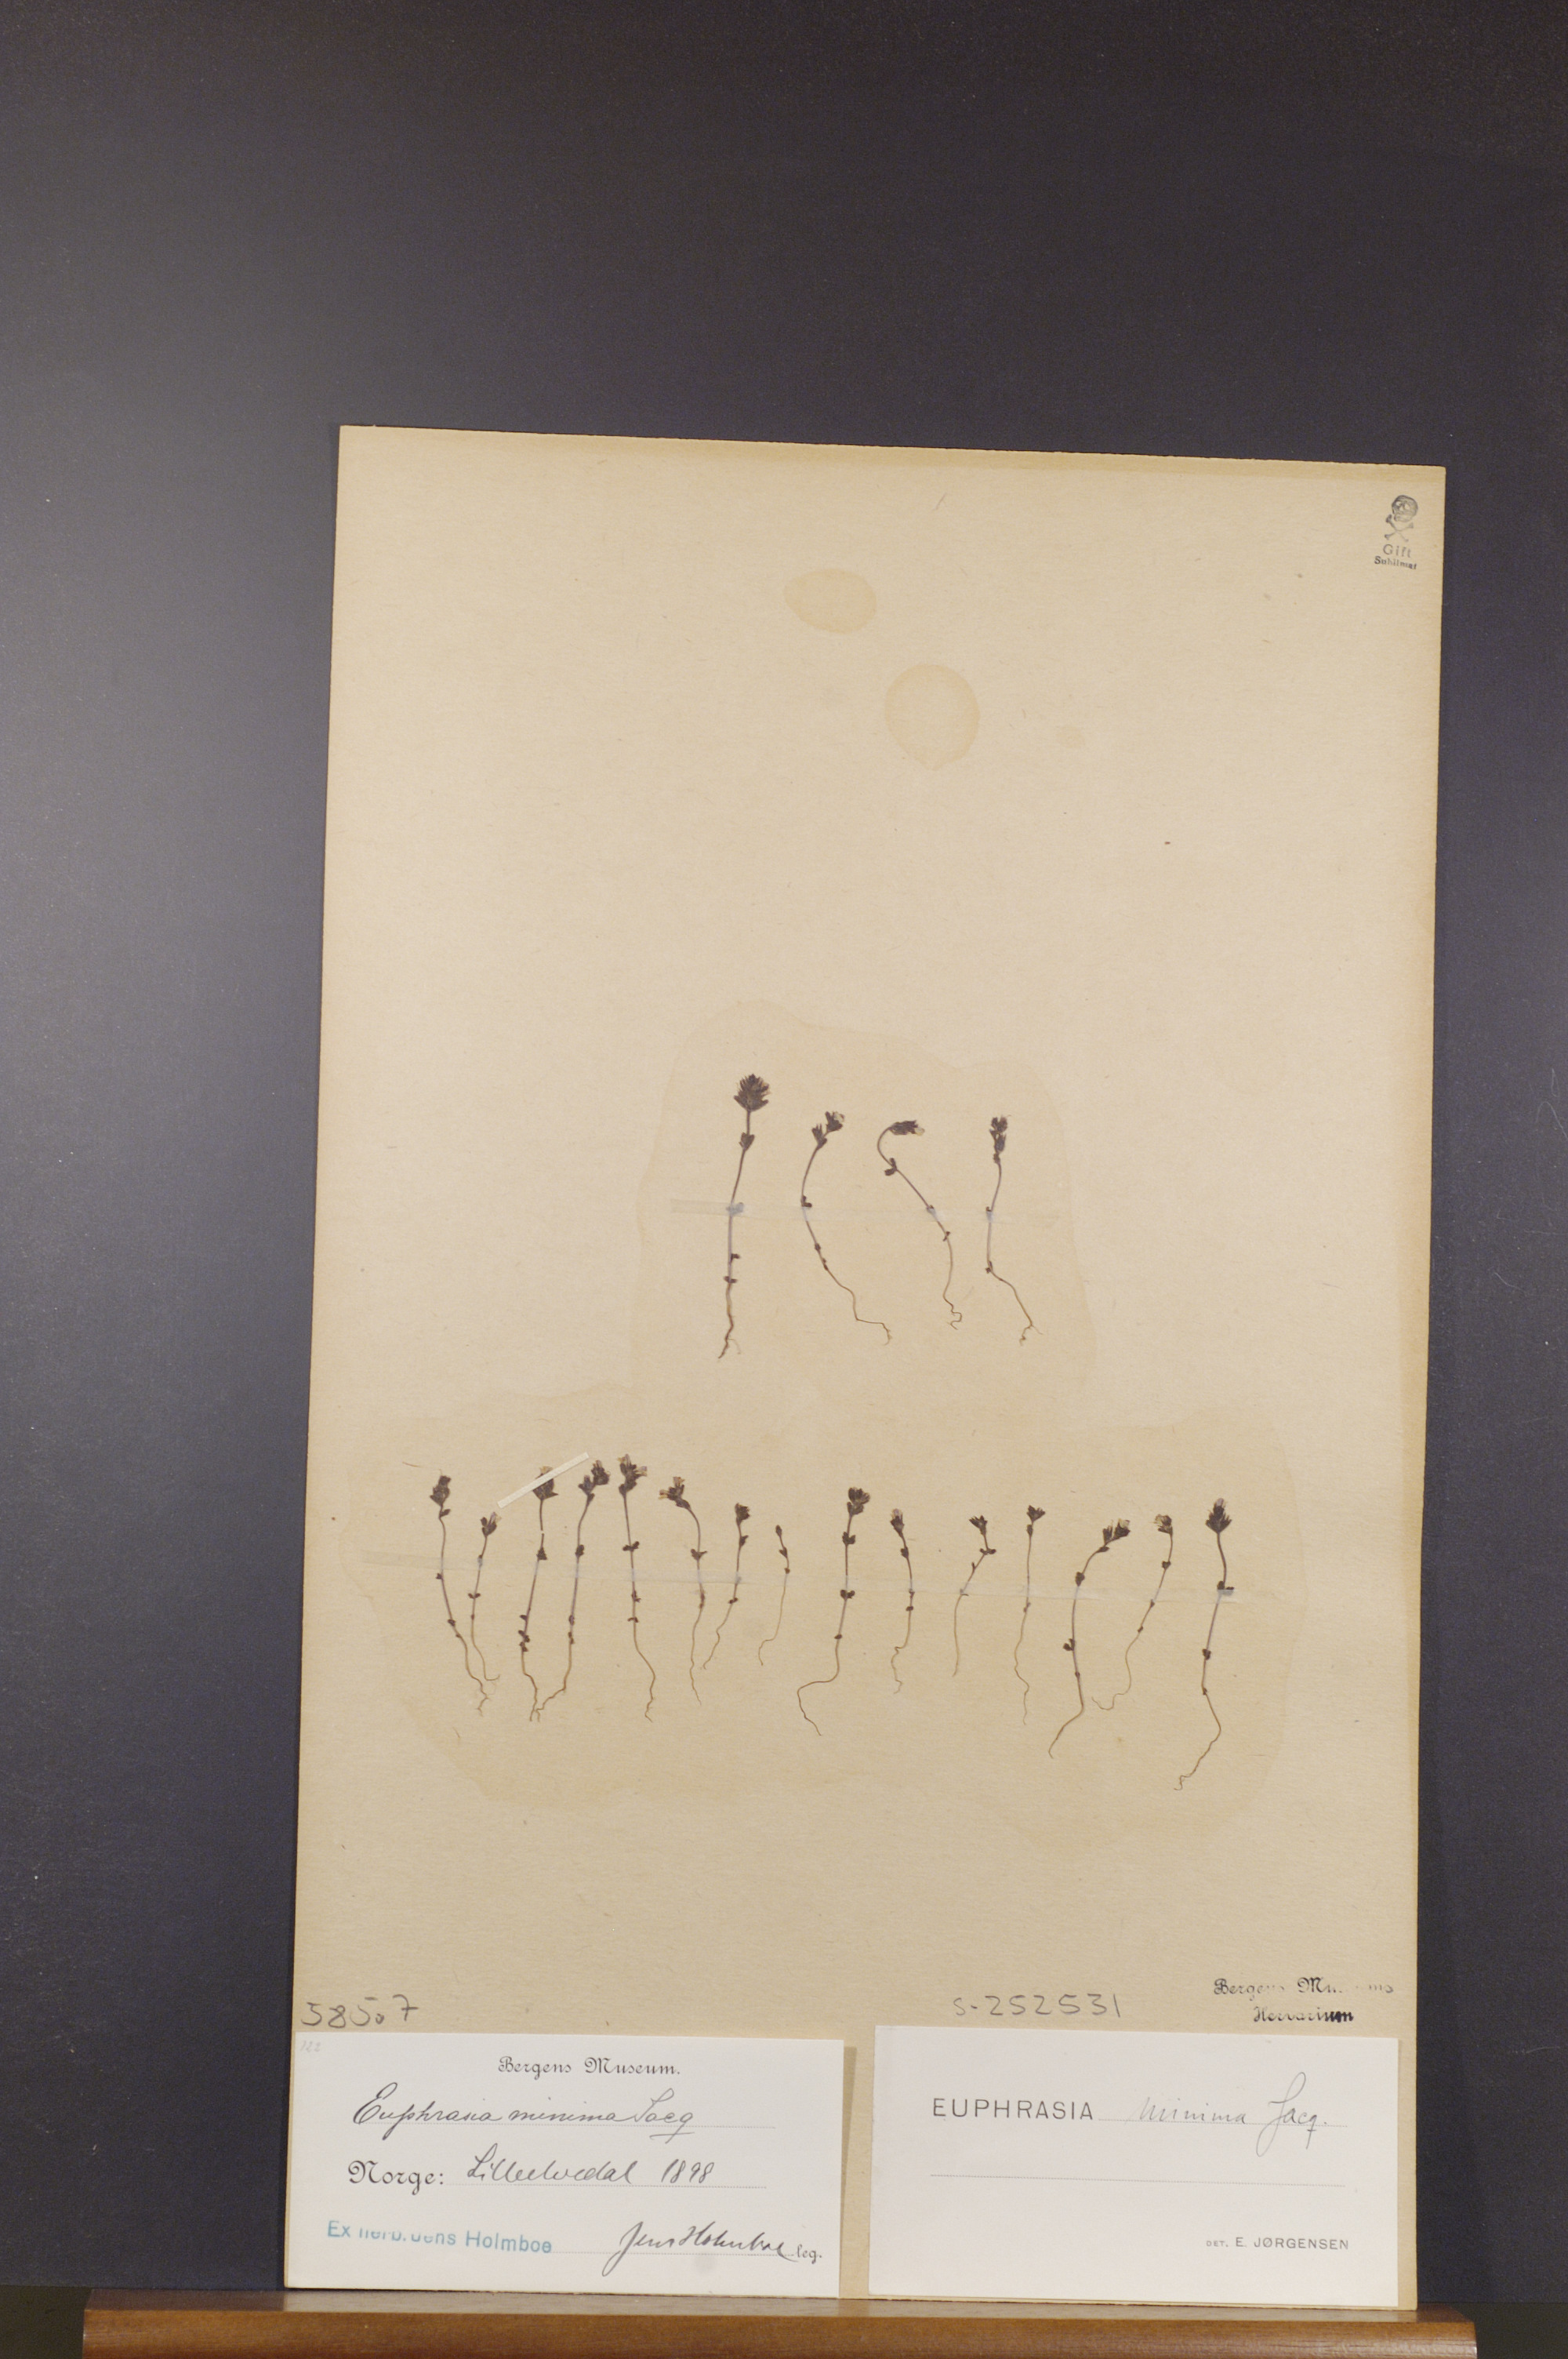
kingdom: Plantae
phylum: Tracheophyta
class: Magnoliopsida
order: Lamiales
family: Orobanchaceae
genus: Euphrasia
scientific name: Euphrasia minima
